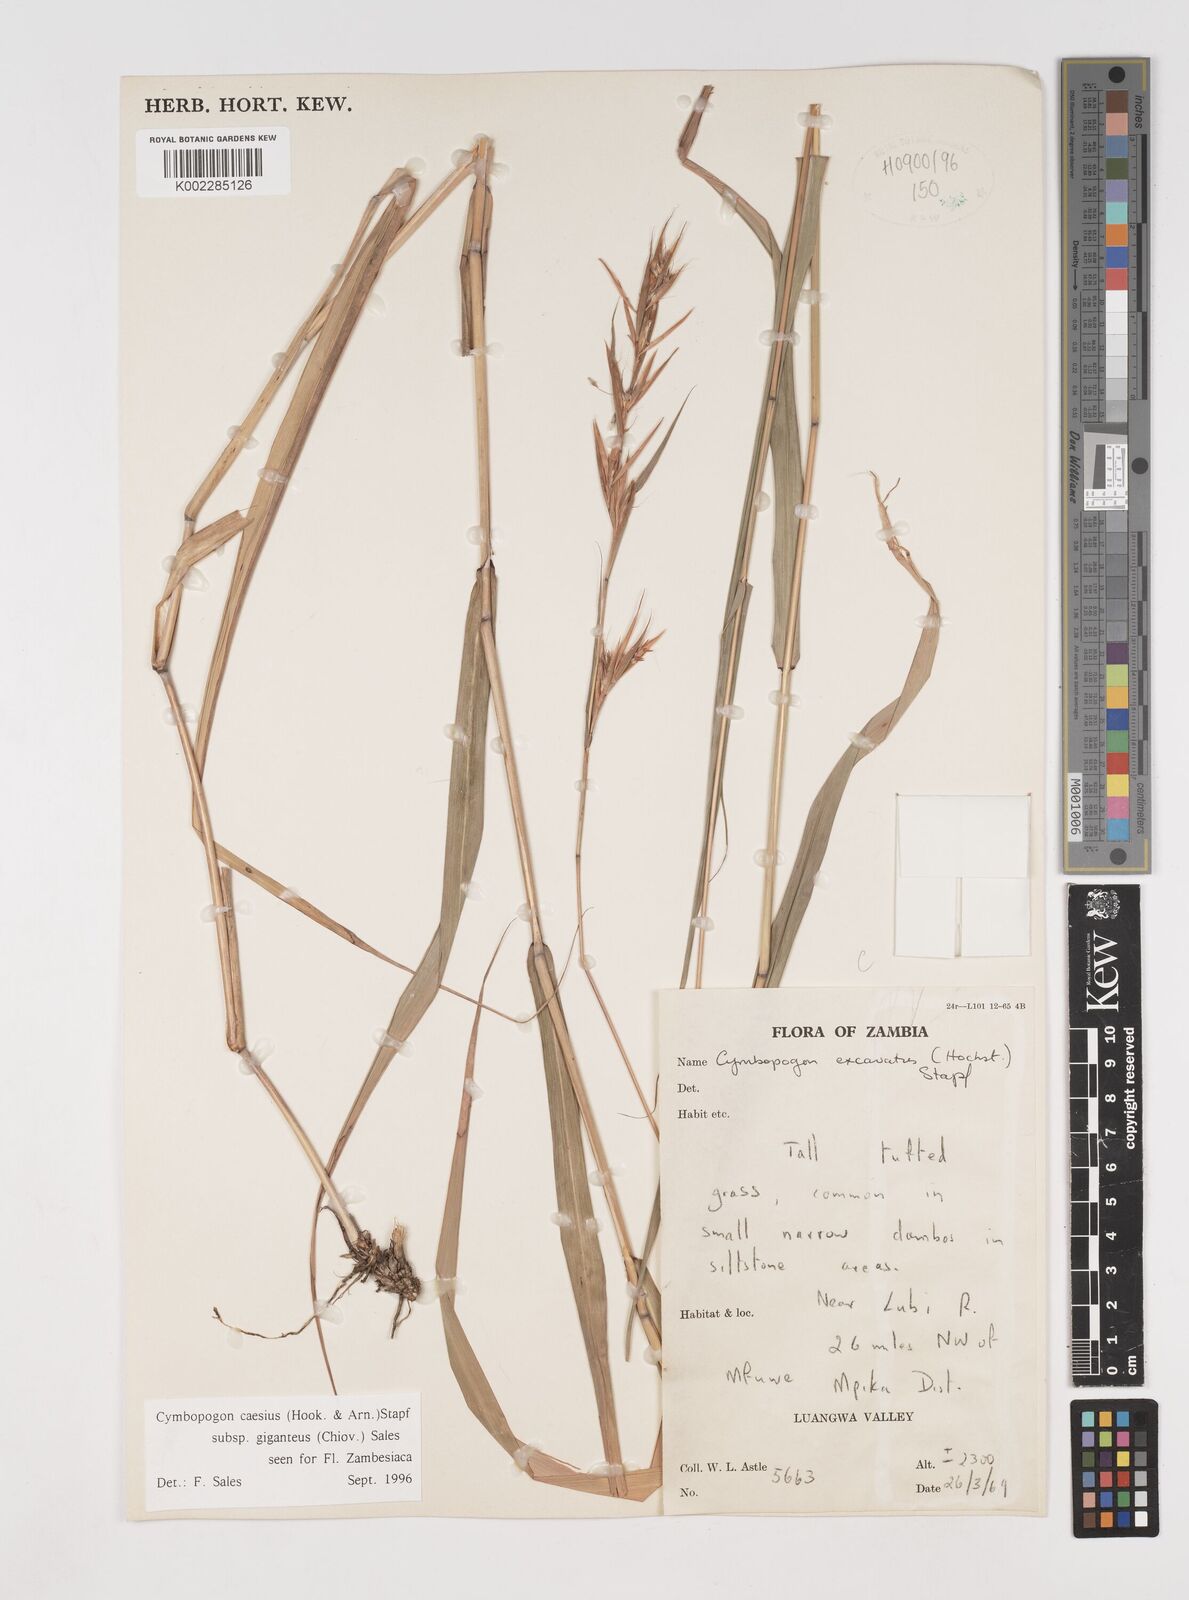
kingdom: Plantae
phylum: Tracheophyta
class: Liliopsida
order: Poales
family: Poaceae
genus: Cymbopogon
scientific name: Cymbopogon giganteus
